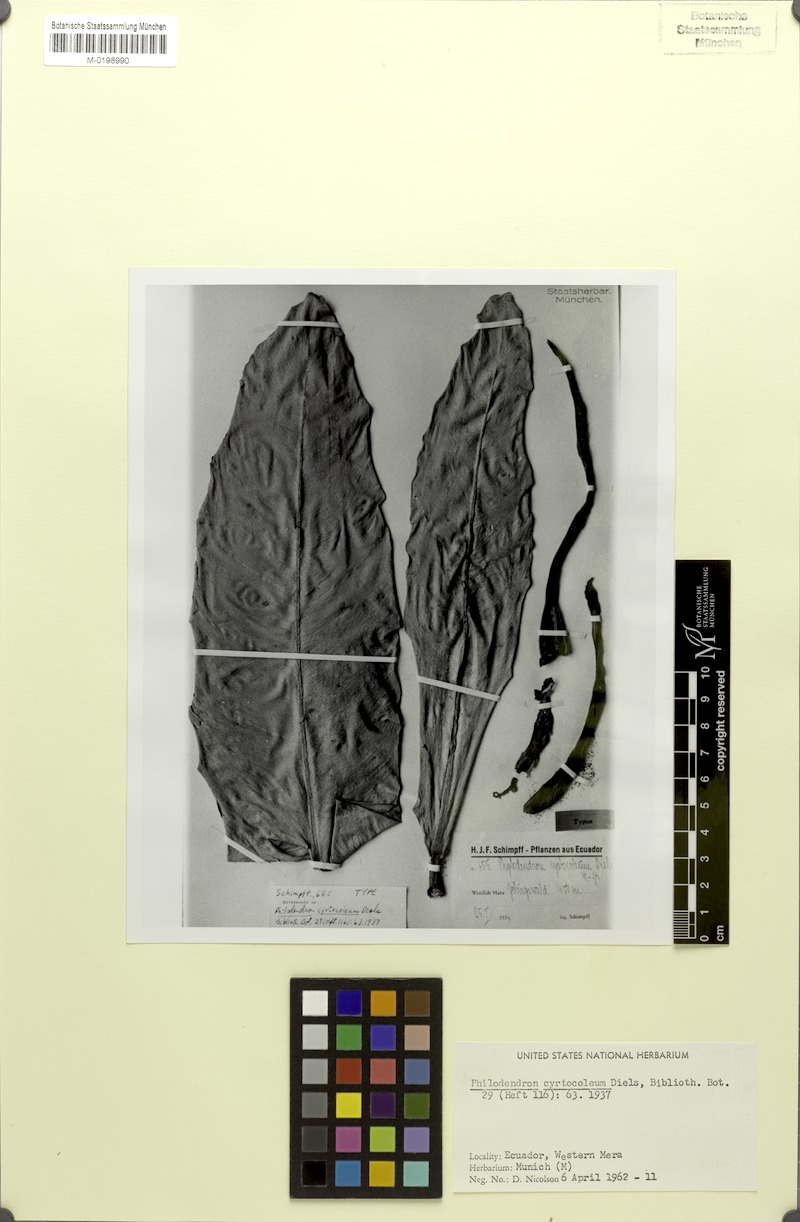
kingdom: Plantae
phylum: Tracheophyta
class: Liliopsida
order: Alismatales
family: Araceae
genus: Philodendron
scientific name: Philodendron ruizii
